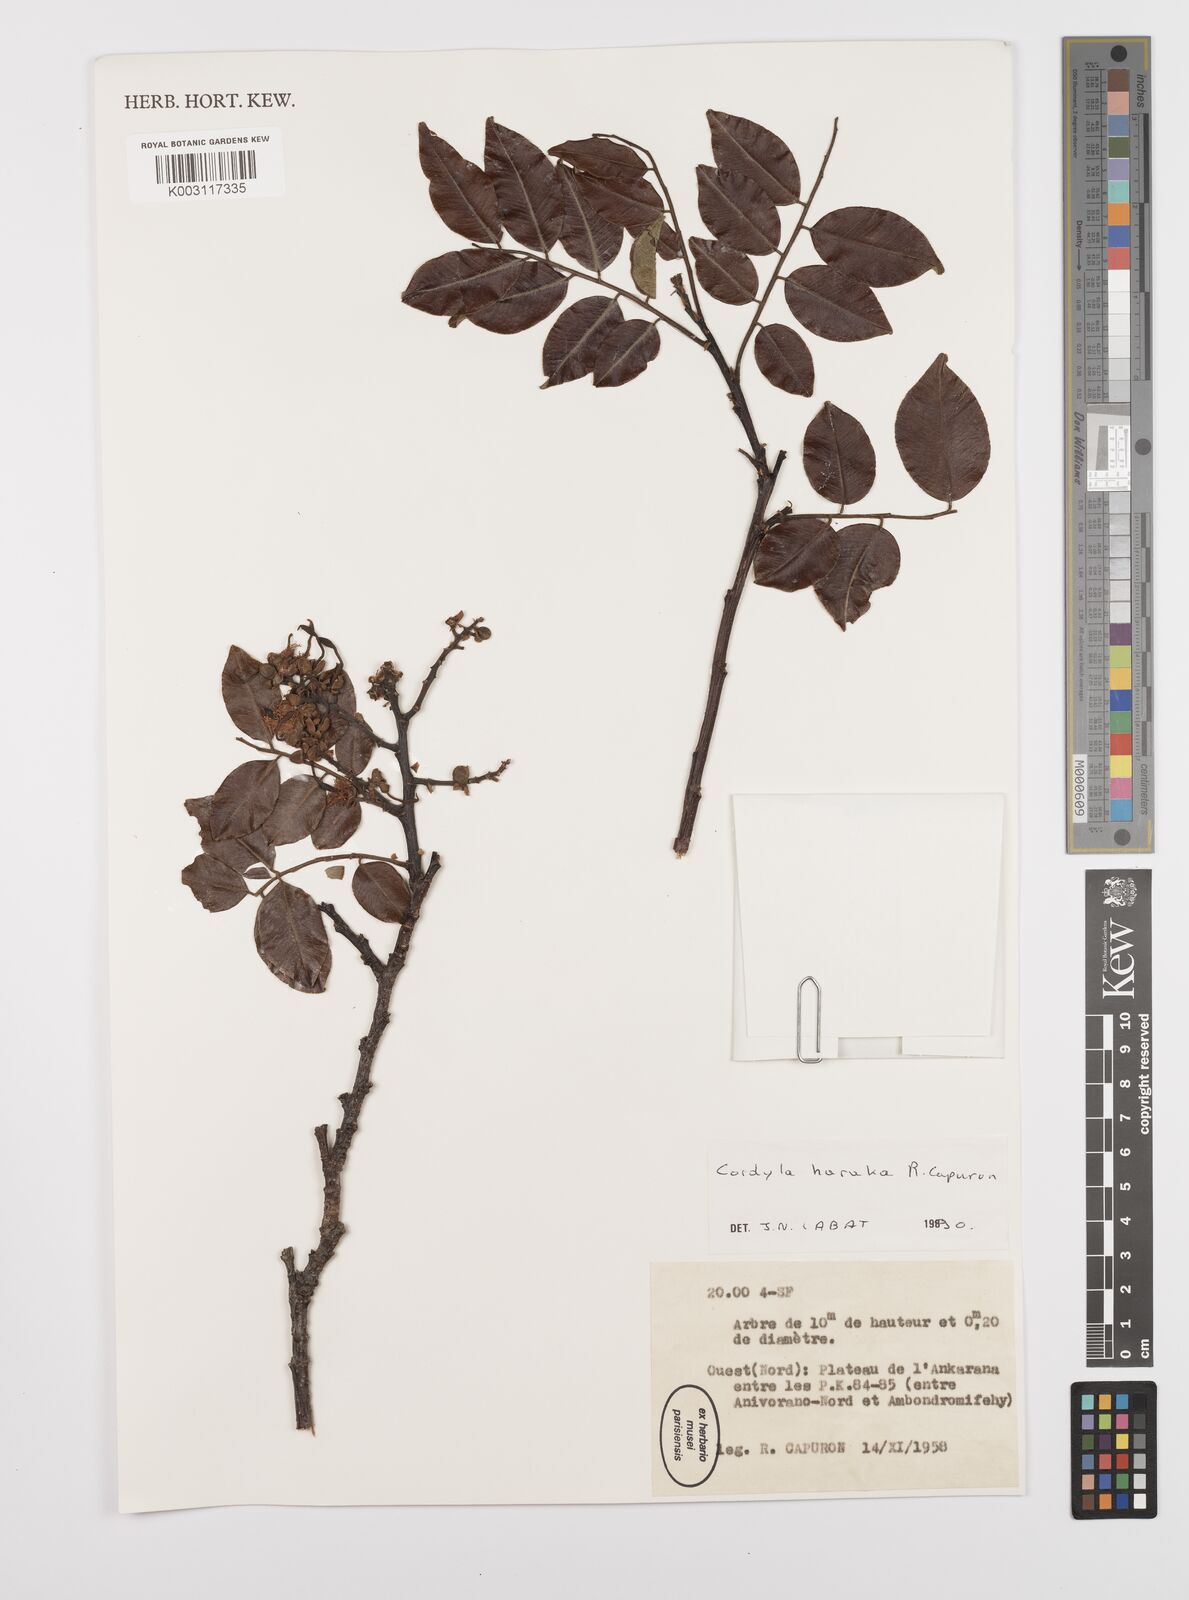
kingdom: Plantae
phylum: Tracheophyta
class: Magnoliopsida
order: Fabales
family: Fabaceae
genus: Cordyla
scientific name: Cordyla haraka
